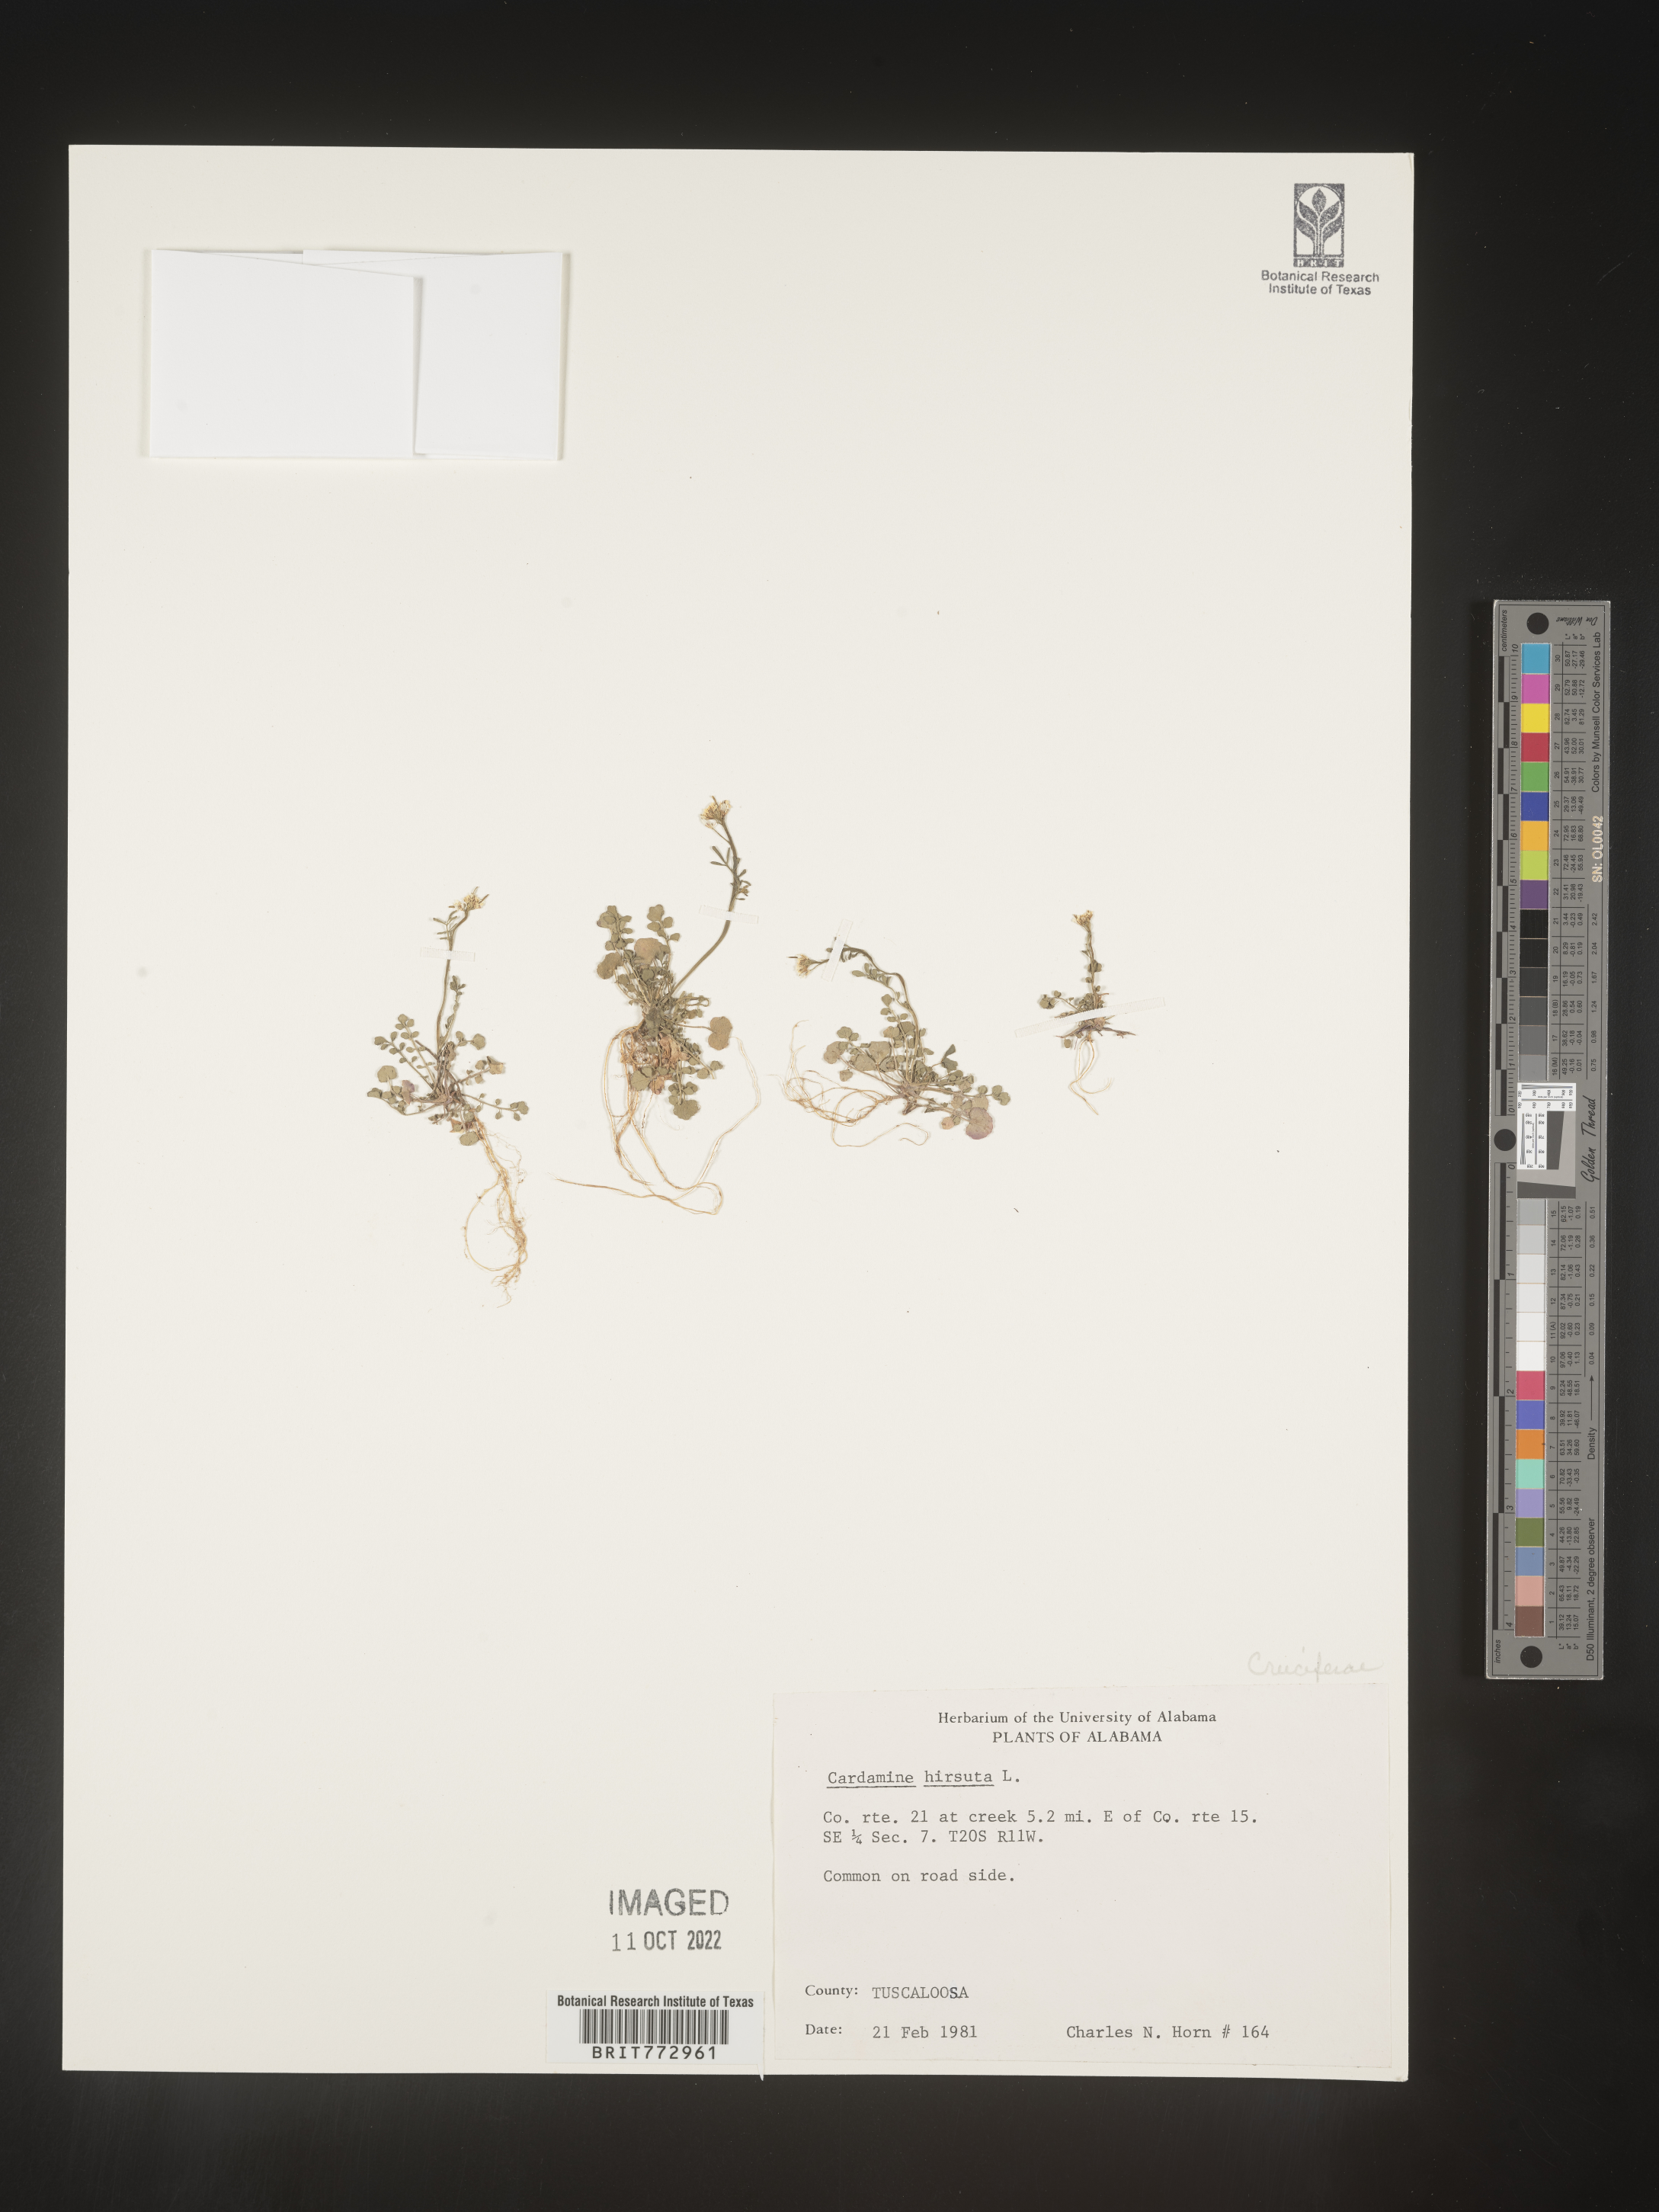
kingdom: Plantae
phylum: Tracheophyta
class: Magnoliopsida
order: Brassicales
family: Brassicaceae
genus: Cardamine
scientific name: Cardamine hirsuta
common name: Hairy bittercress
